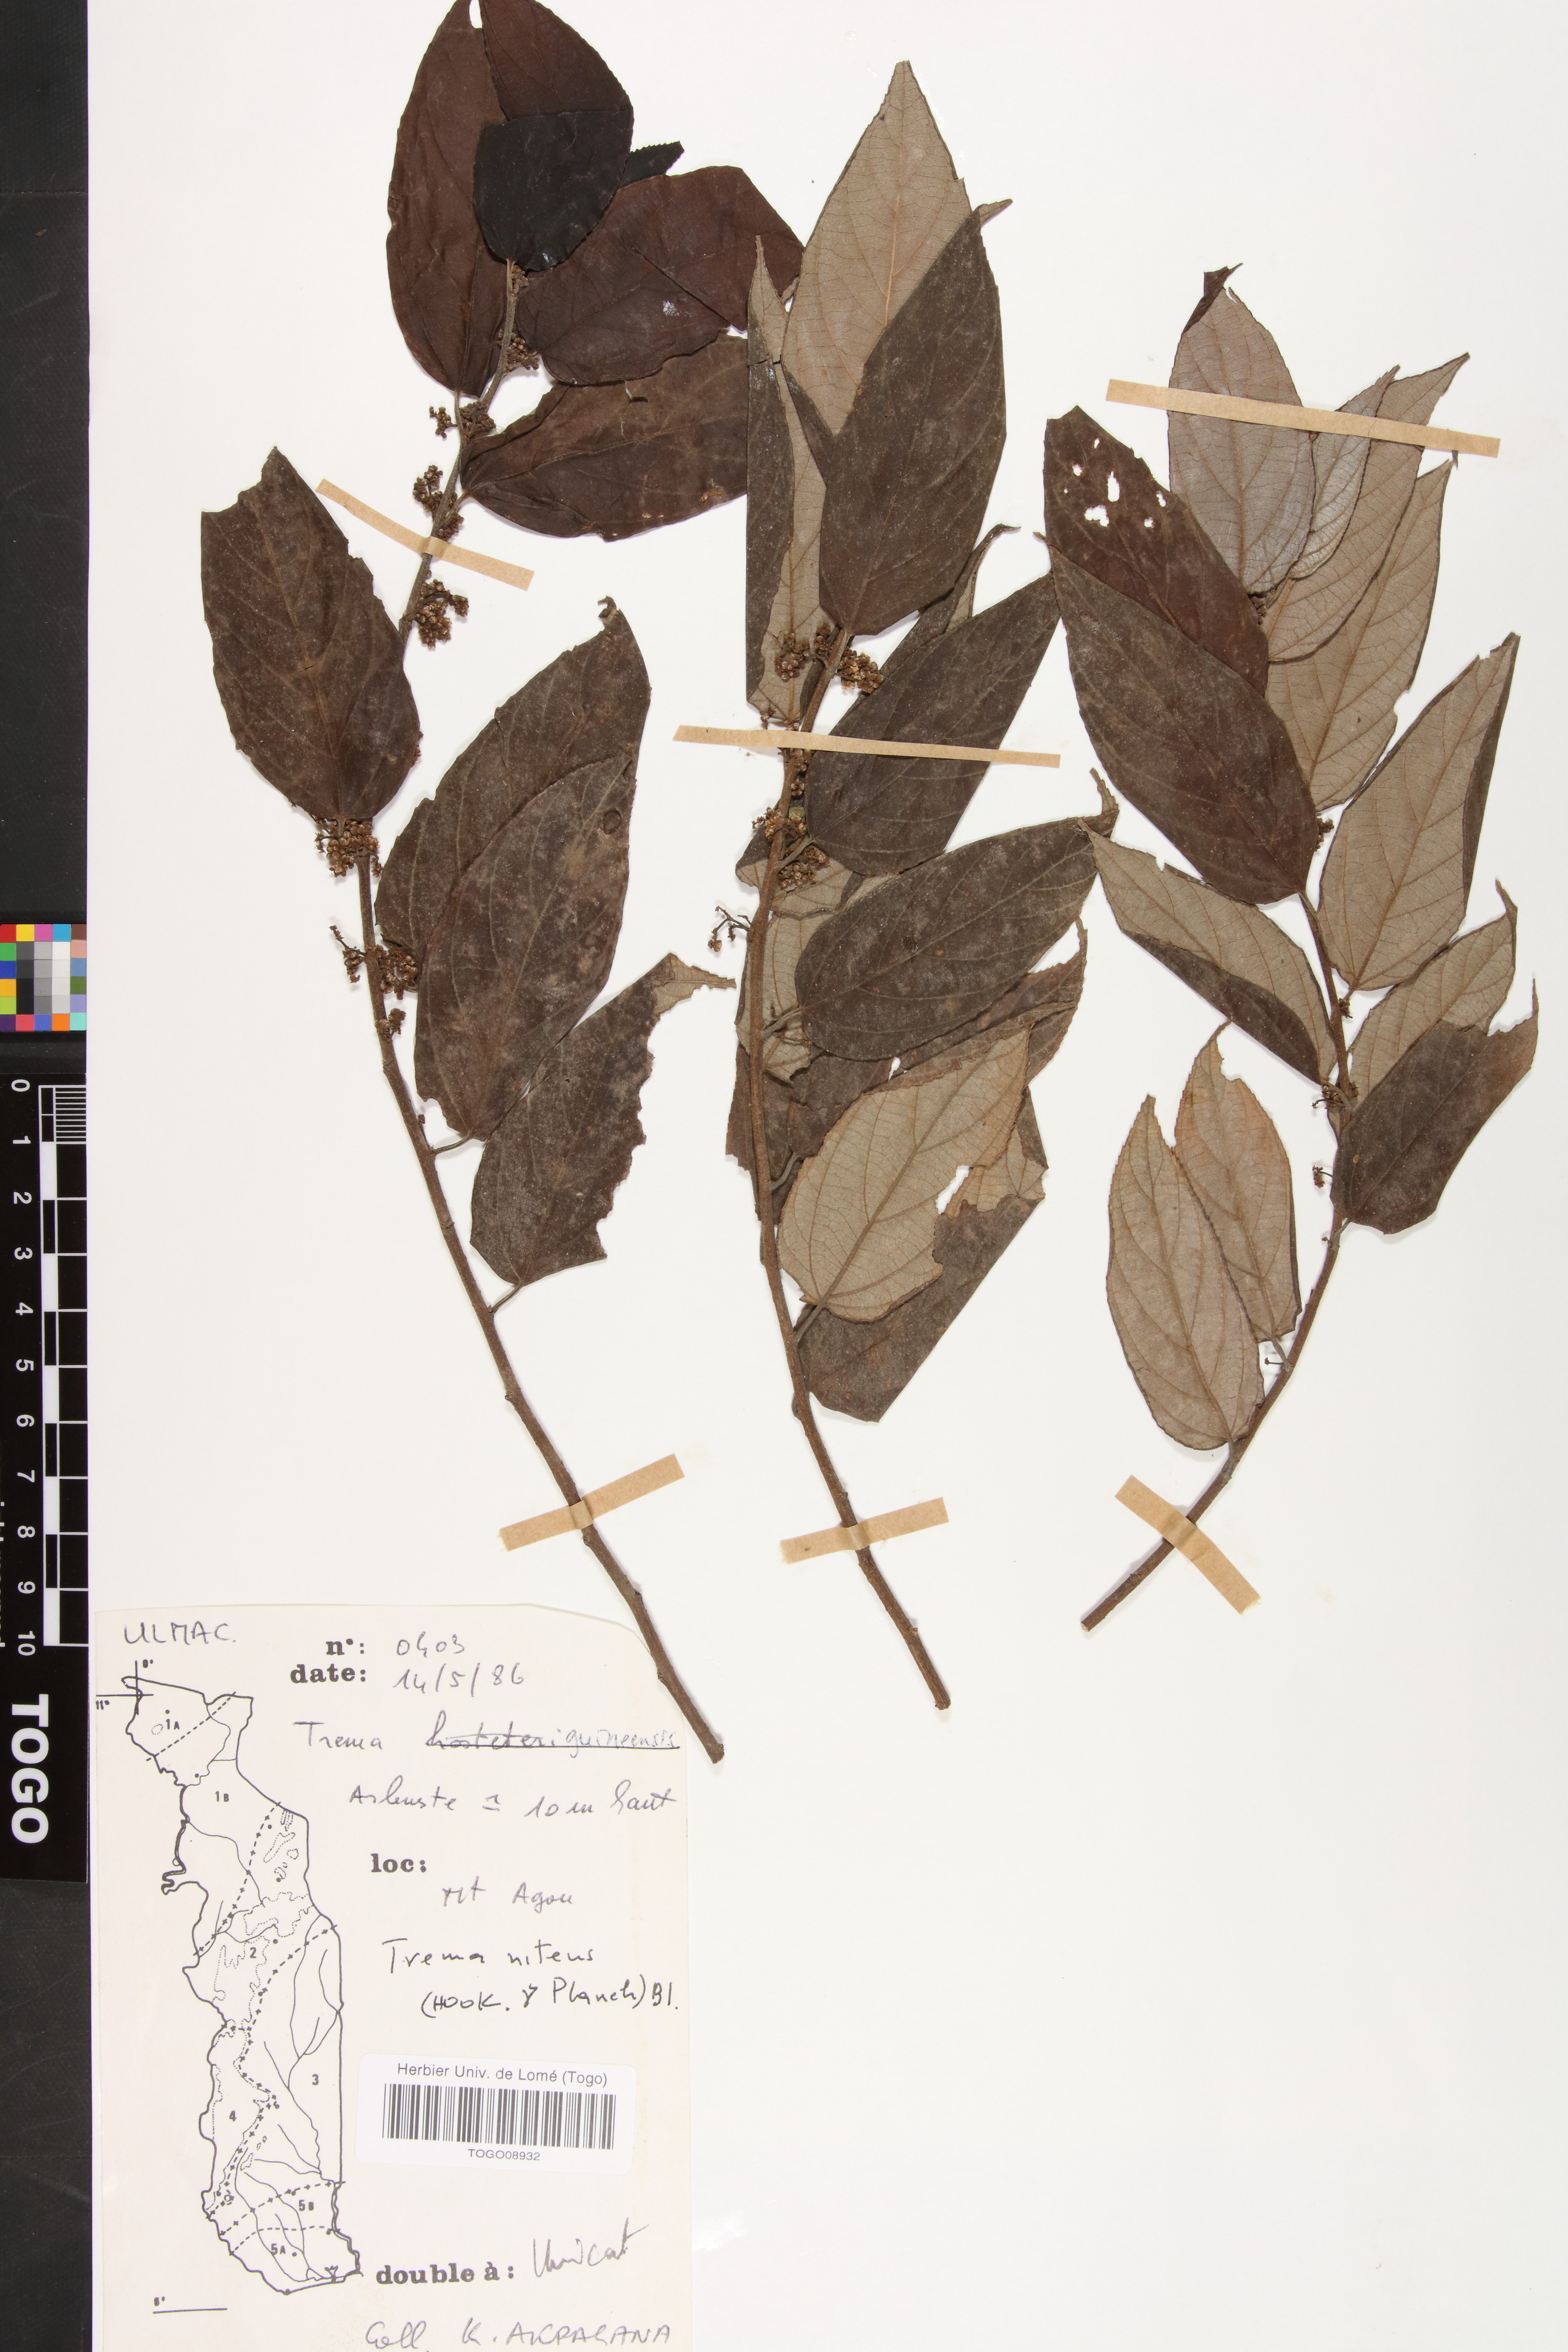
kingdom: Plantae
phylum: Tracheophyta
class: Magnoliopsida
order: Rosales
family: Cannabaceae
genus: Trema
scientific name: Trema orientale
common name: Indian charcoal tree
